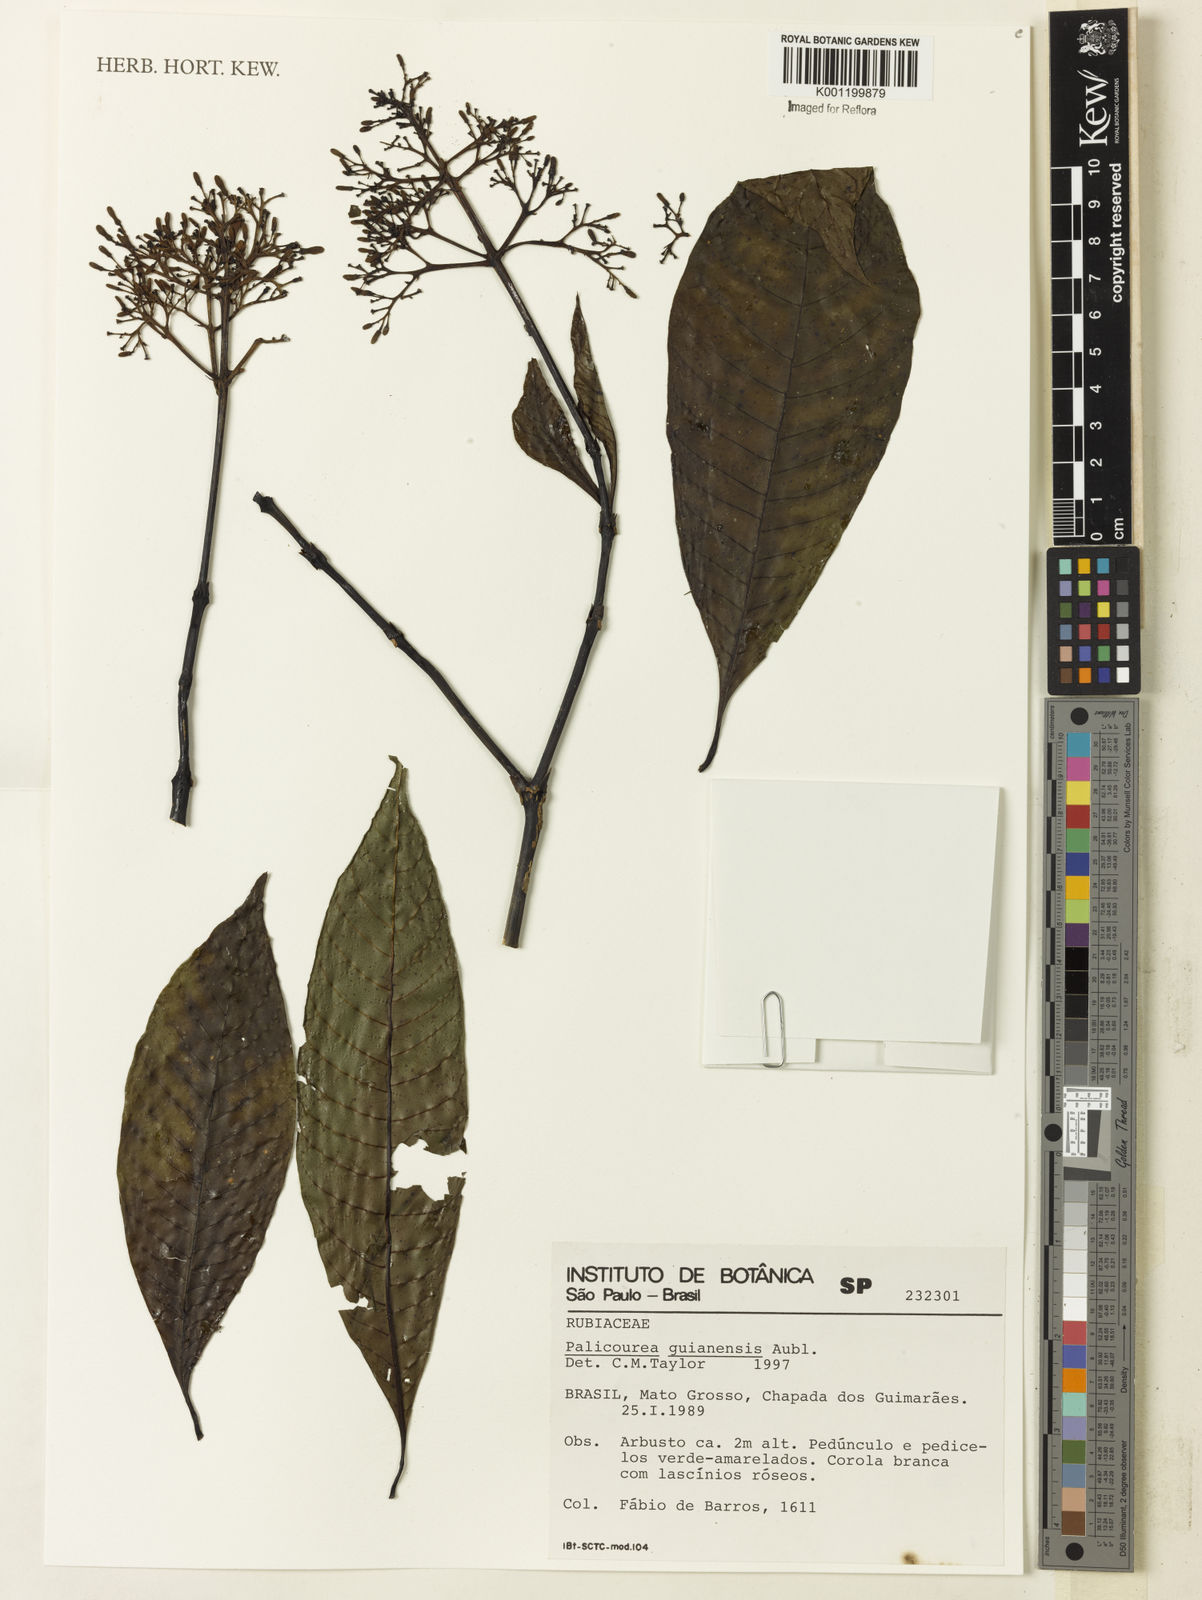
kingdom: Plantae
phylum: Tracheophyta
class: Magnoliopsida
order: Gentianales
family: Rubiaceae
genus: Palicourea
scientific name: Palicourea guianensis
